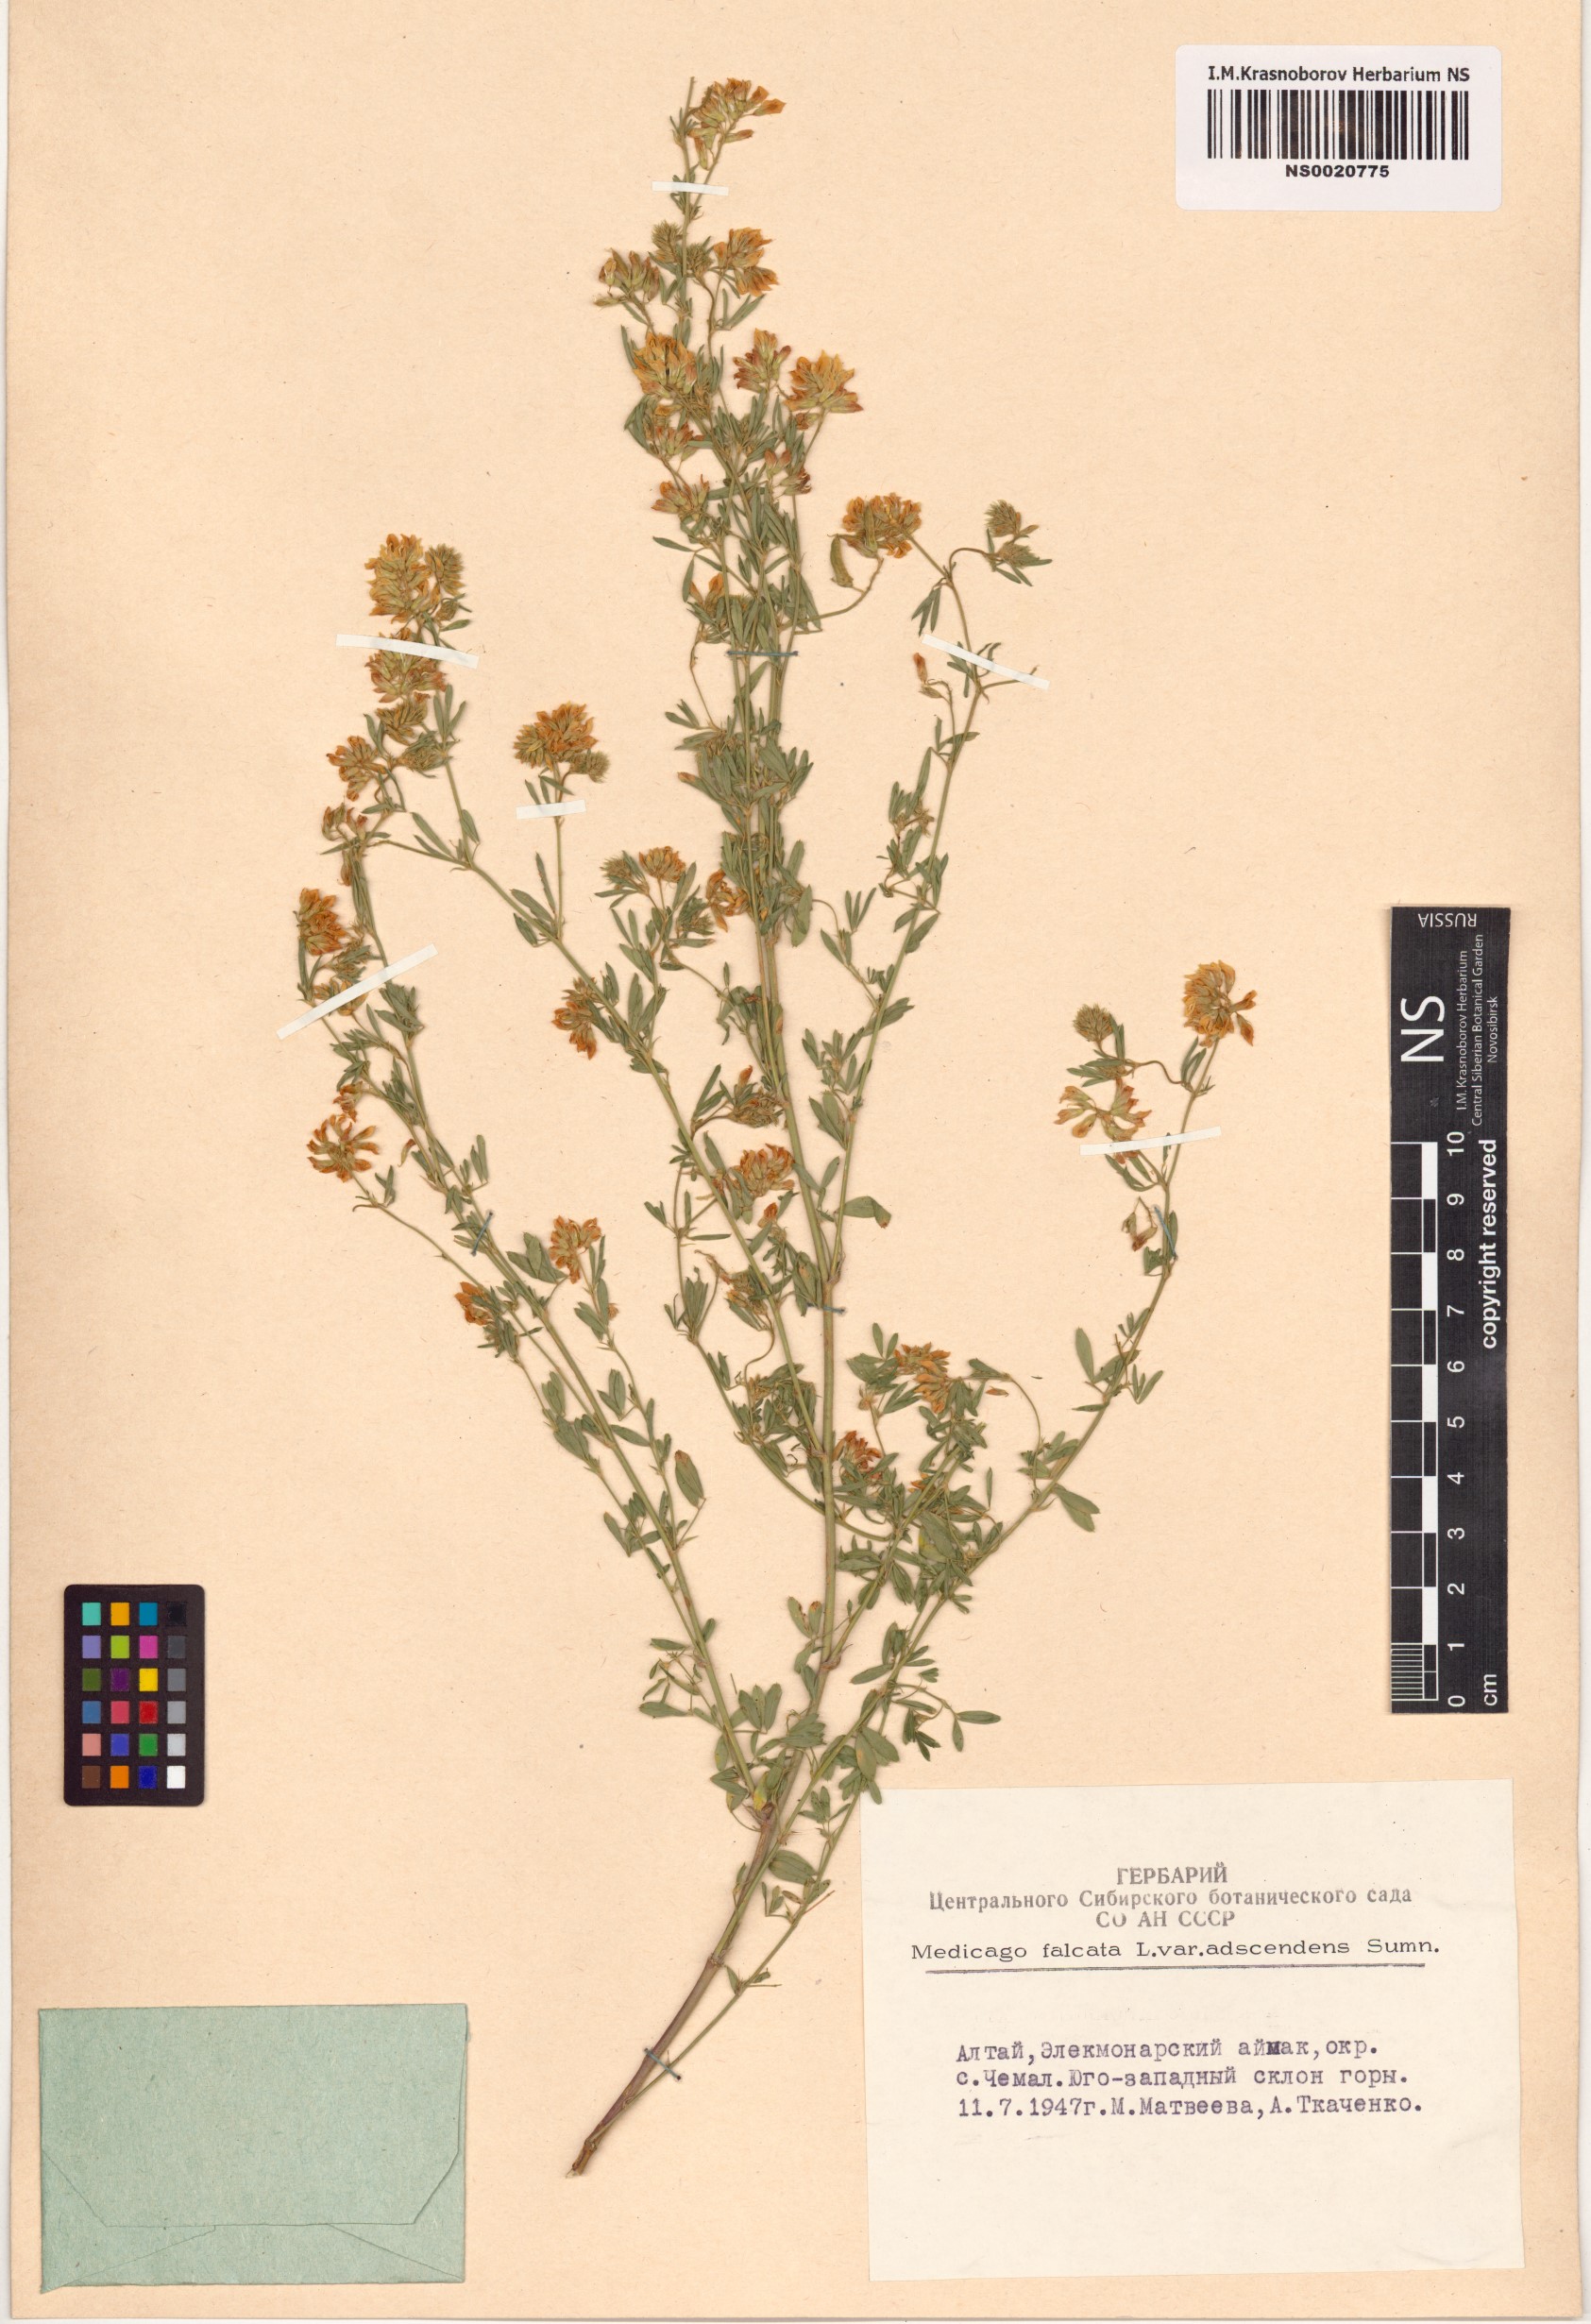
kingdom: Plantae
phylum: Tracheophyta
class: Magnoliopsida
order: Fabales
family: Fabaceae
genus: Medicago
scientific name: Medicago falcata
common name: Sickle medick
